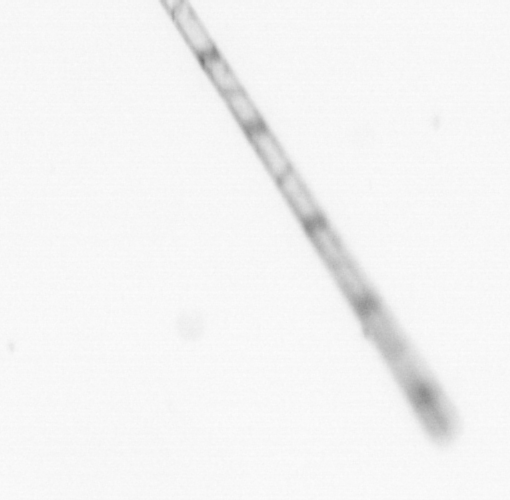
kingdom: Chromista
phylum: Ochrophyta
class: Bacillariophyceae
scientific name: Bacillariophyceae
